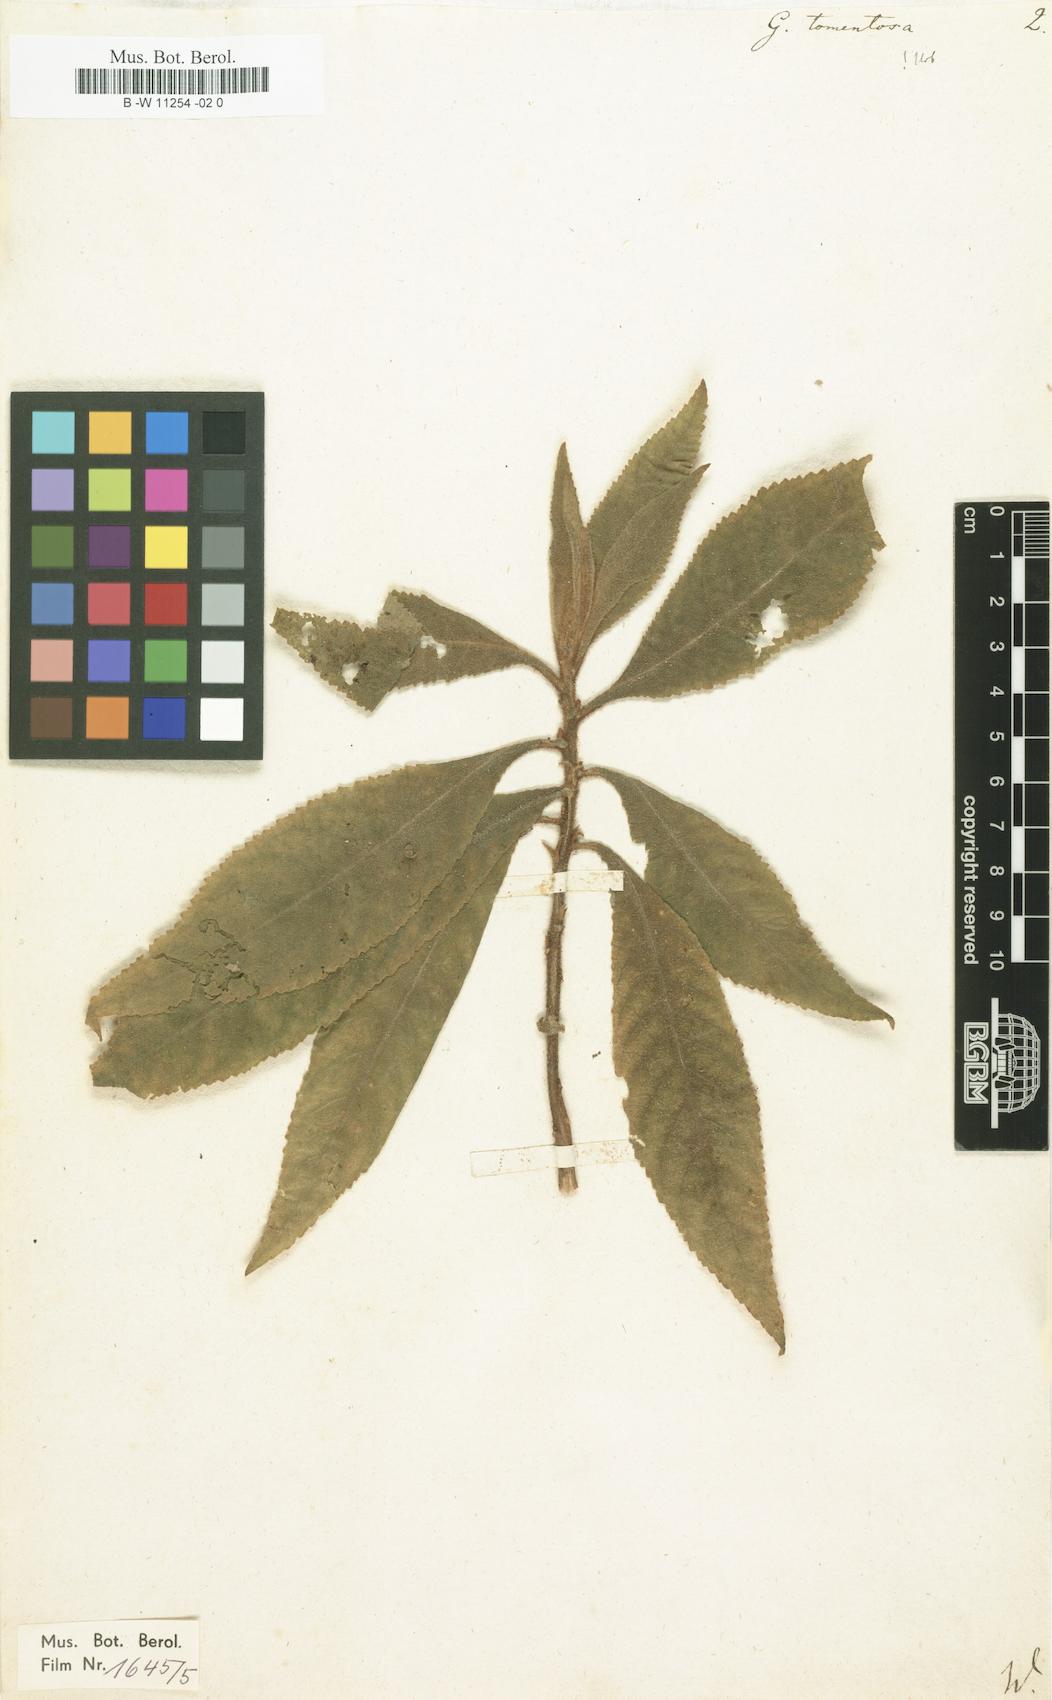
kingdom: Plantae
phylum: Tracheophyta
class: Magnoliopsida
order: Lamiales
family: Gesneriaceae
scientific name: Gesneriaceae
